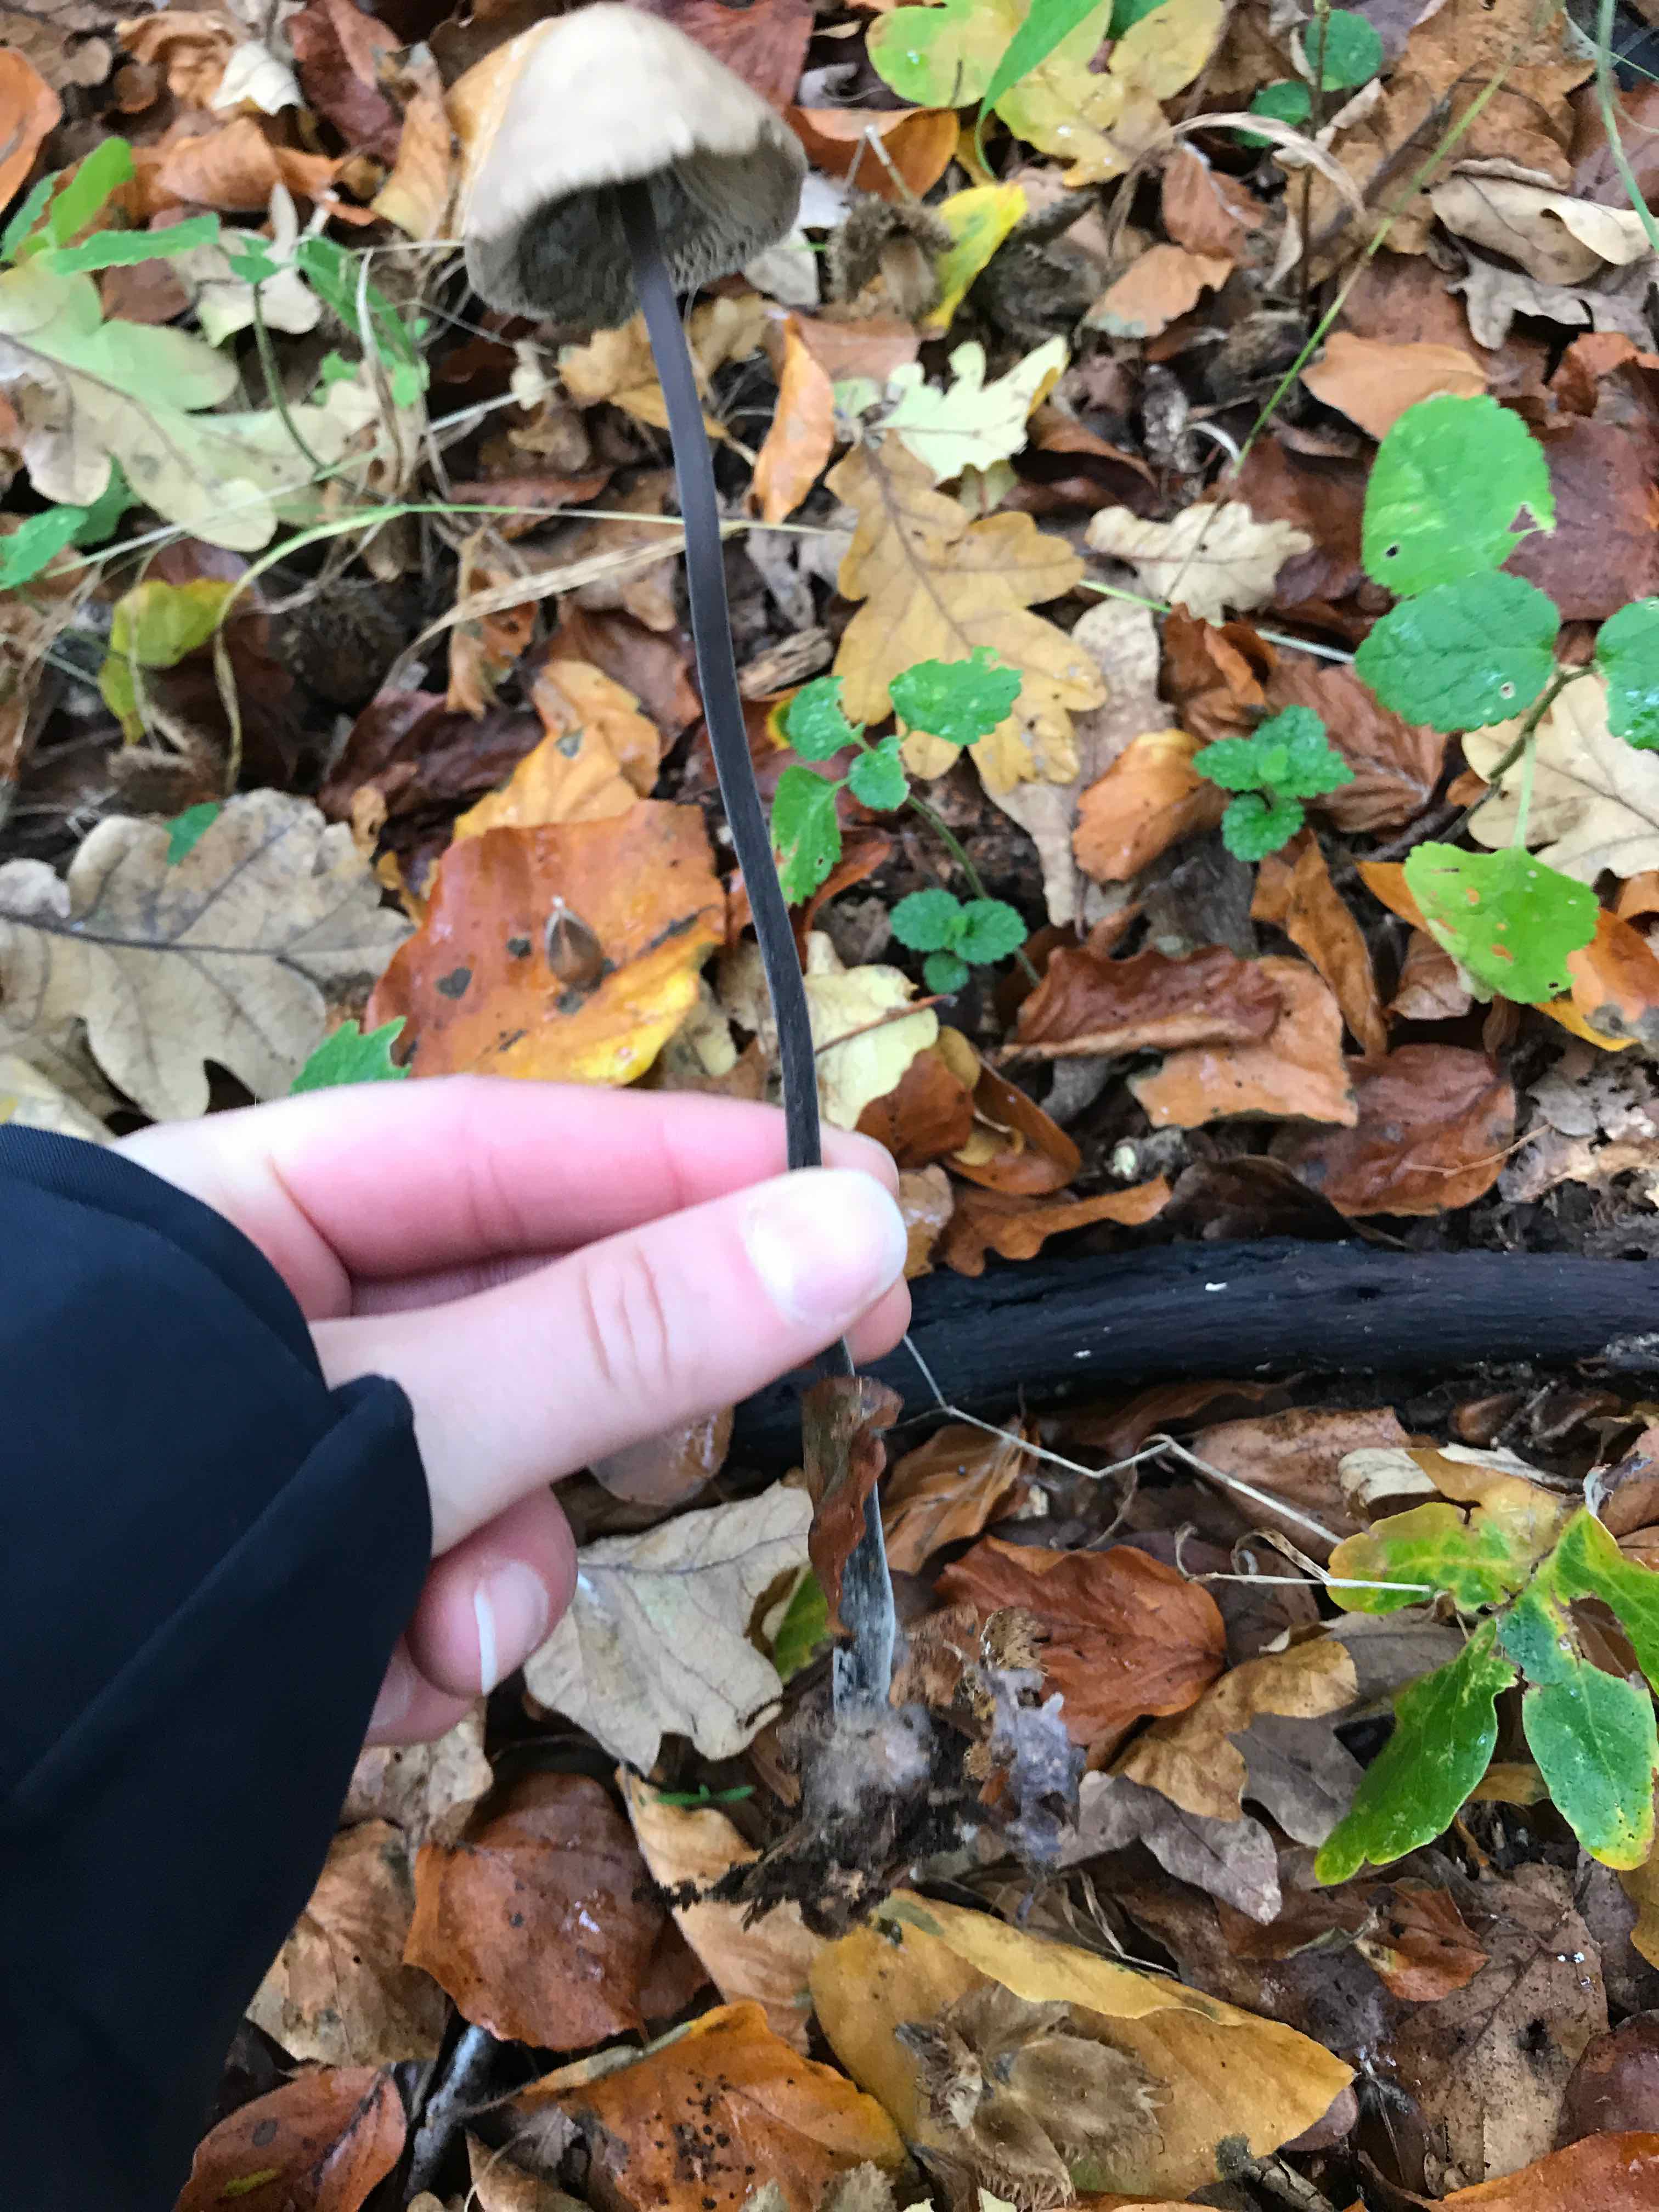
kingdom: Fungi
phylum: Basidiomycota
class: Agaricomycetes
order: Agaricales
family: Omphalotaceae
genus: Mycetinis
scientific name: Mycetinis alliaceus
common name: stor løghat
